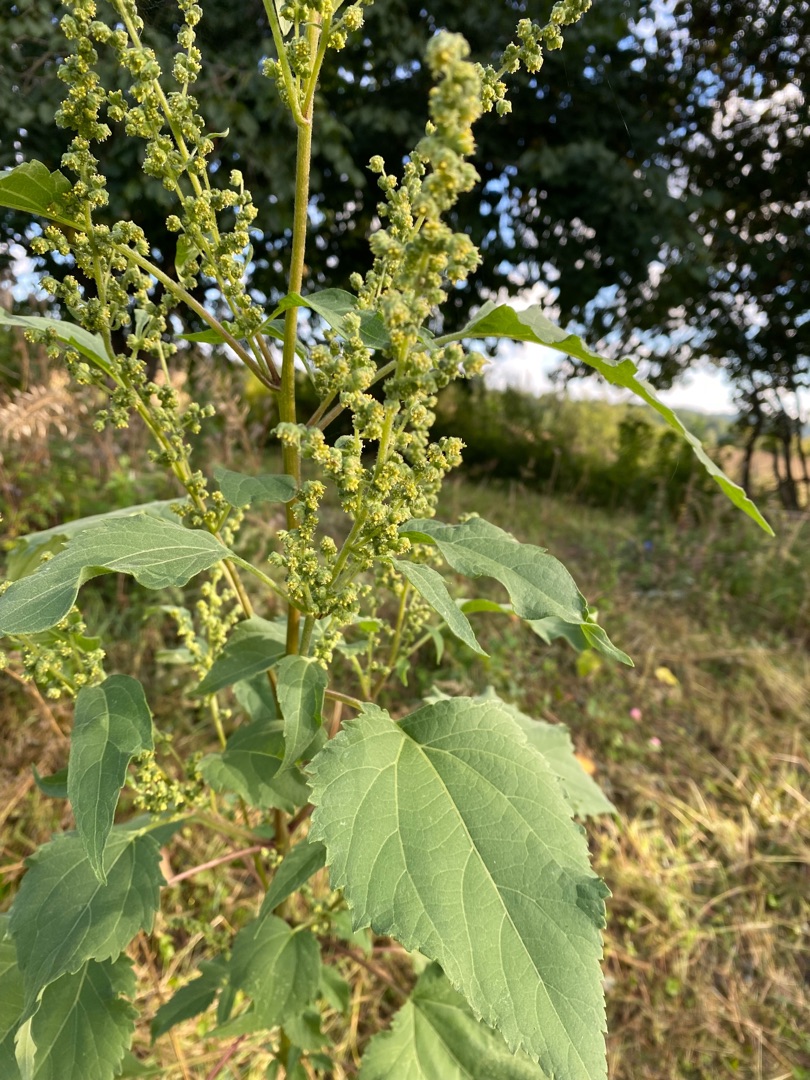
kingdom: Plantae
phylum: Tracheophyta
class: Magnoliopsida
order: Asterales
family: Asteraceae
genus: Cyclachaena
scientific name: Cyclachaena xanthiifolia
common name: Klaseurt
